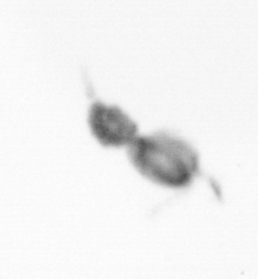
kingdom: Animalia
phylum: Arthropoda
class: Copepoda
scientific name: Copepoda
